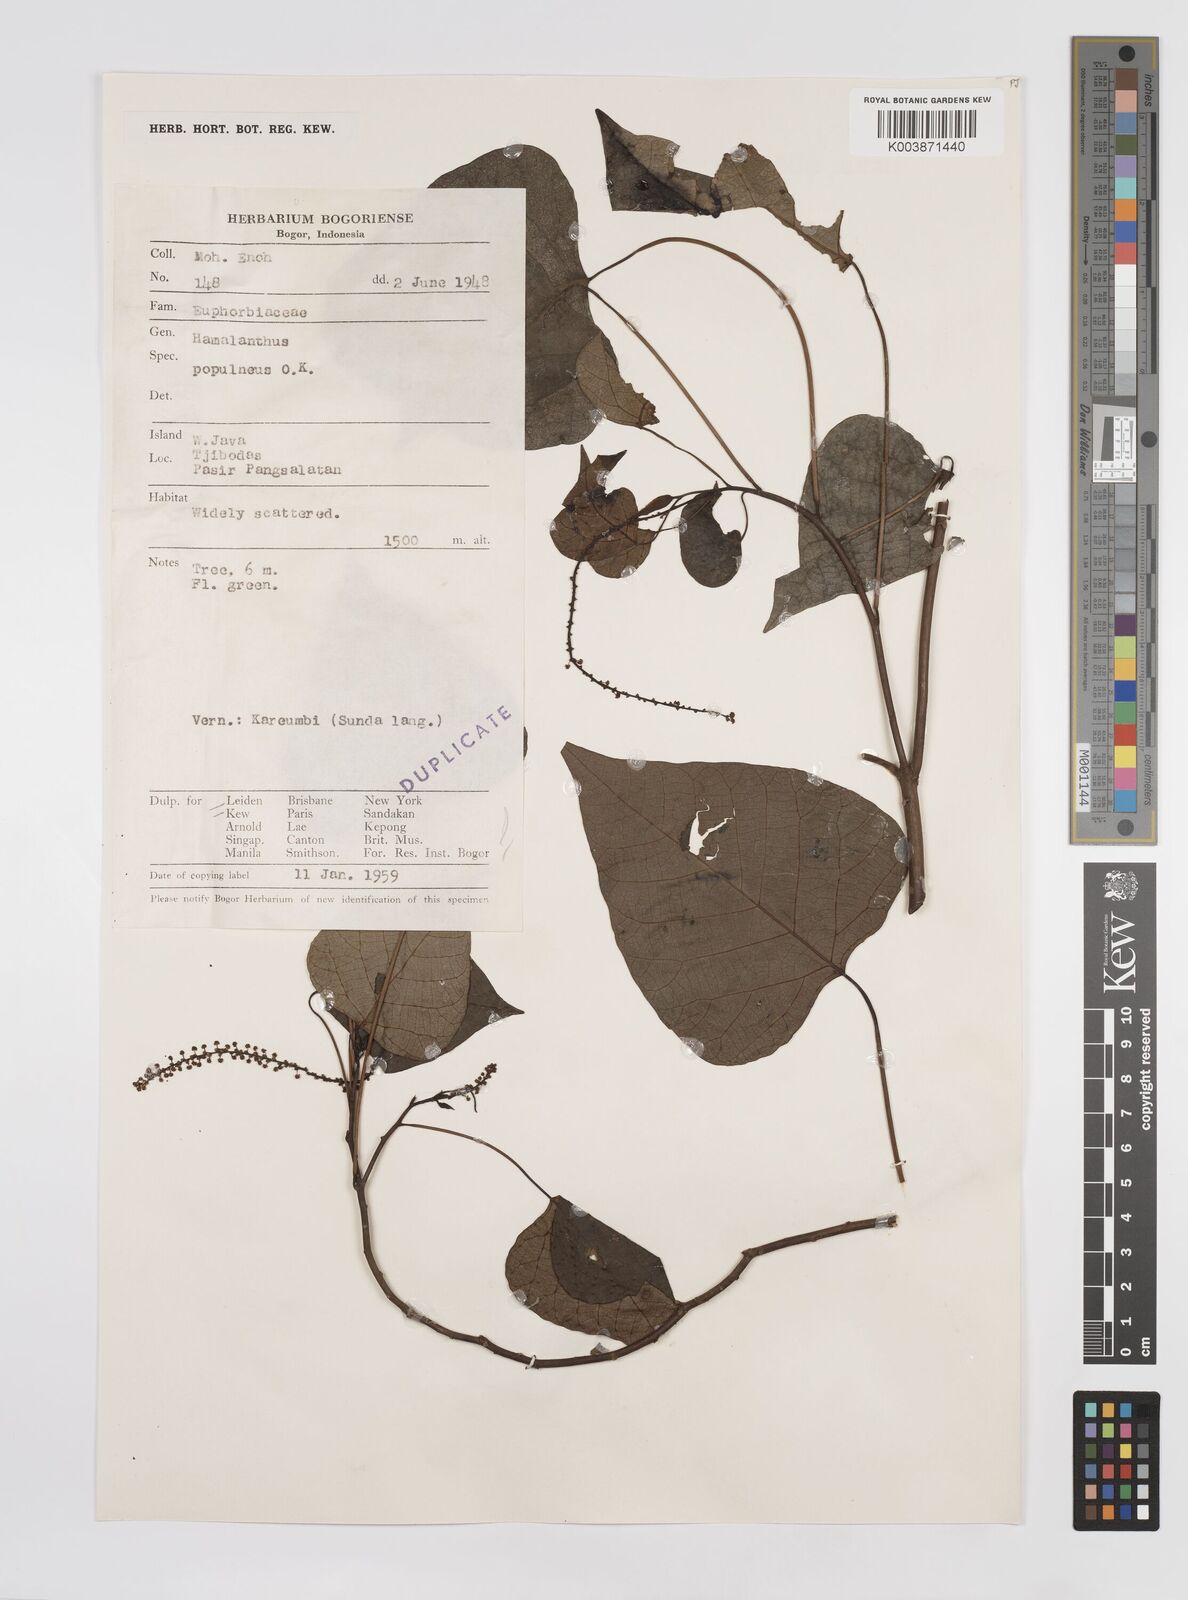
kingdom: Plantae
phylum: Tracheophyta
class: Magnoliopsida
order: Malpighiales
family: Euphorbiaceae
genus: Homalanthus
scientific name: Homalanthus populneus
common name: Spurge
